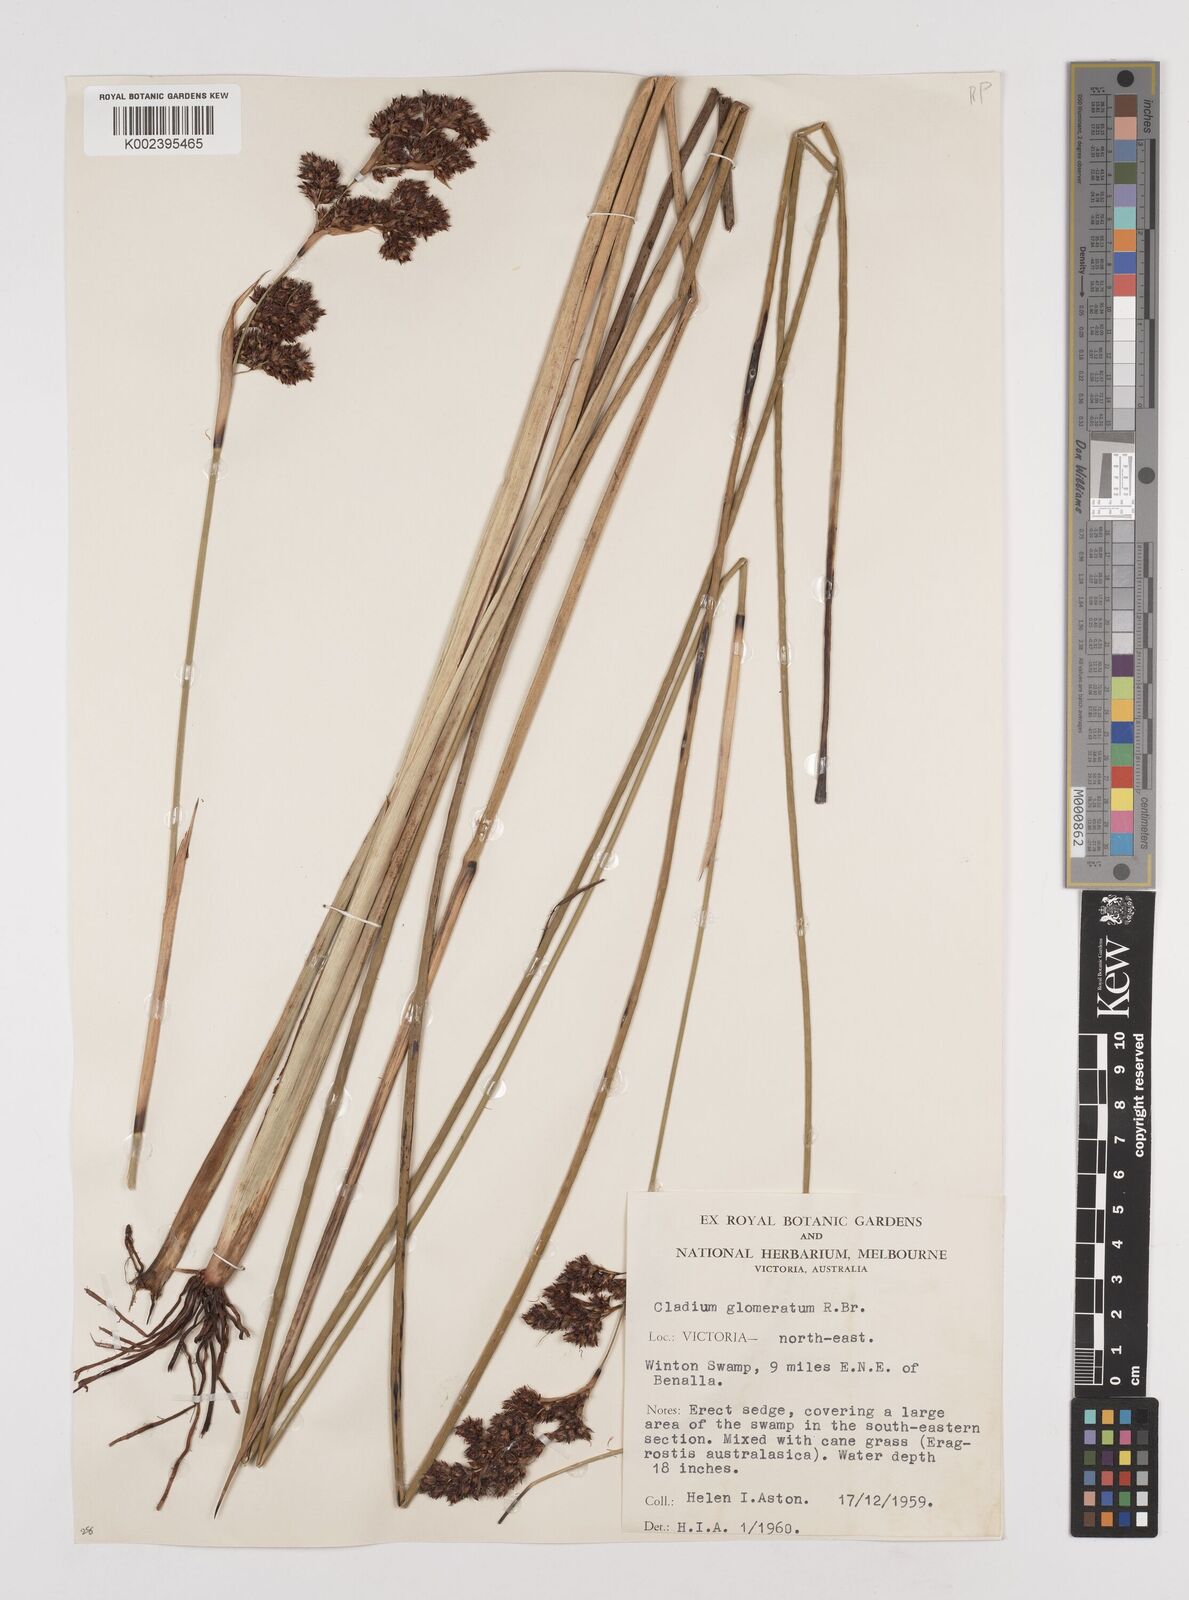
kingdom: Plantae
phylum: Tracheophyta
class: Liliopsida
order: Poales
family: Cyperaceae
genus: Machaerina
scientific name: Machaerina
